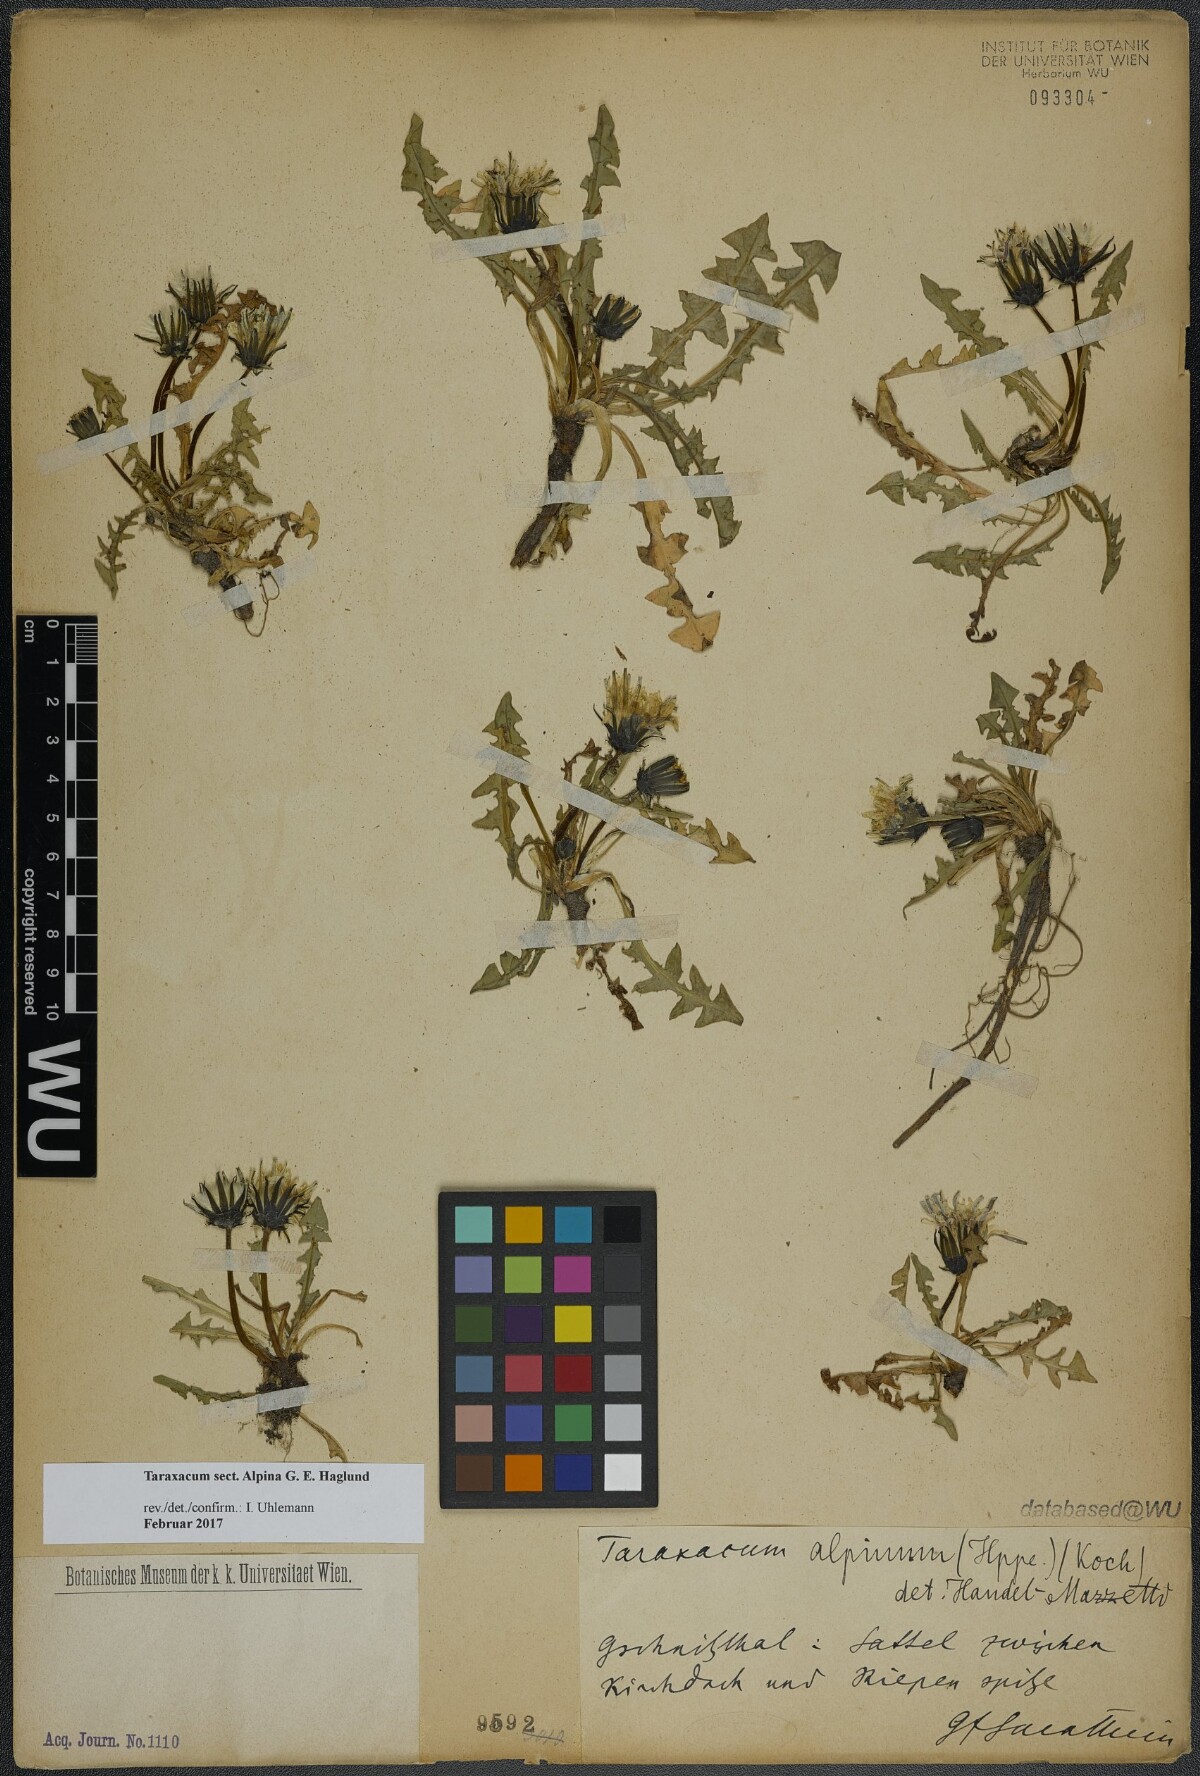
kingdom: Plantae
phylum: Tracheophyta
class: Magnoliopsida
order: Asterales
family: Asteraceae
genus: Taraxacum
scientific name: Taraxacum
